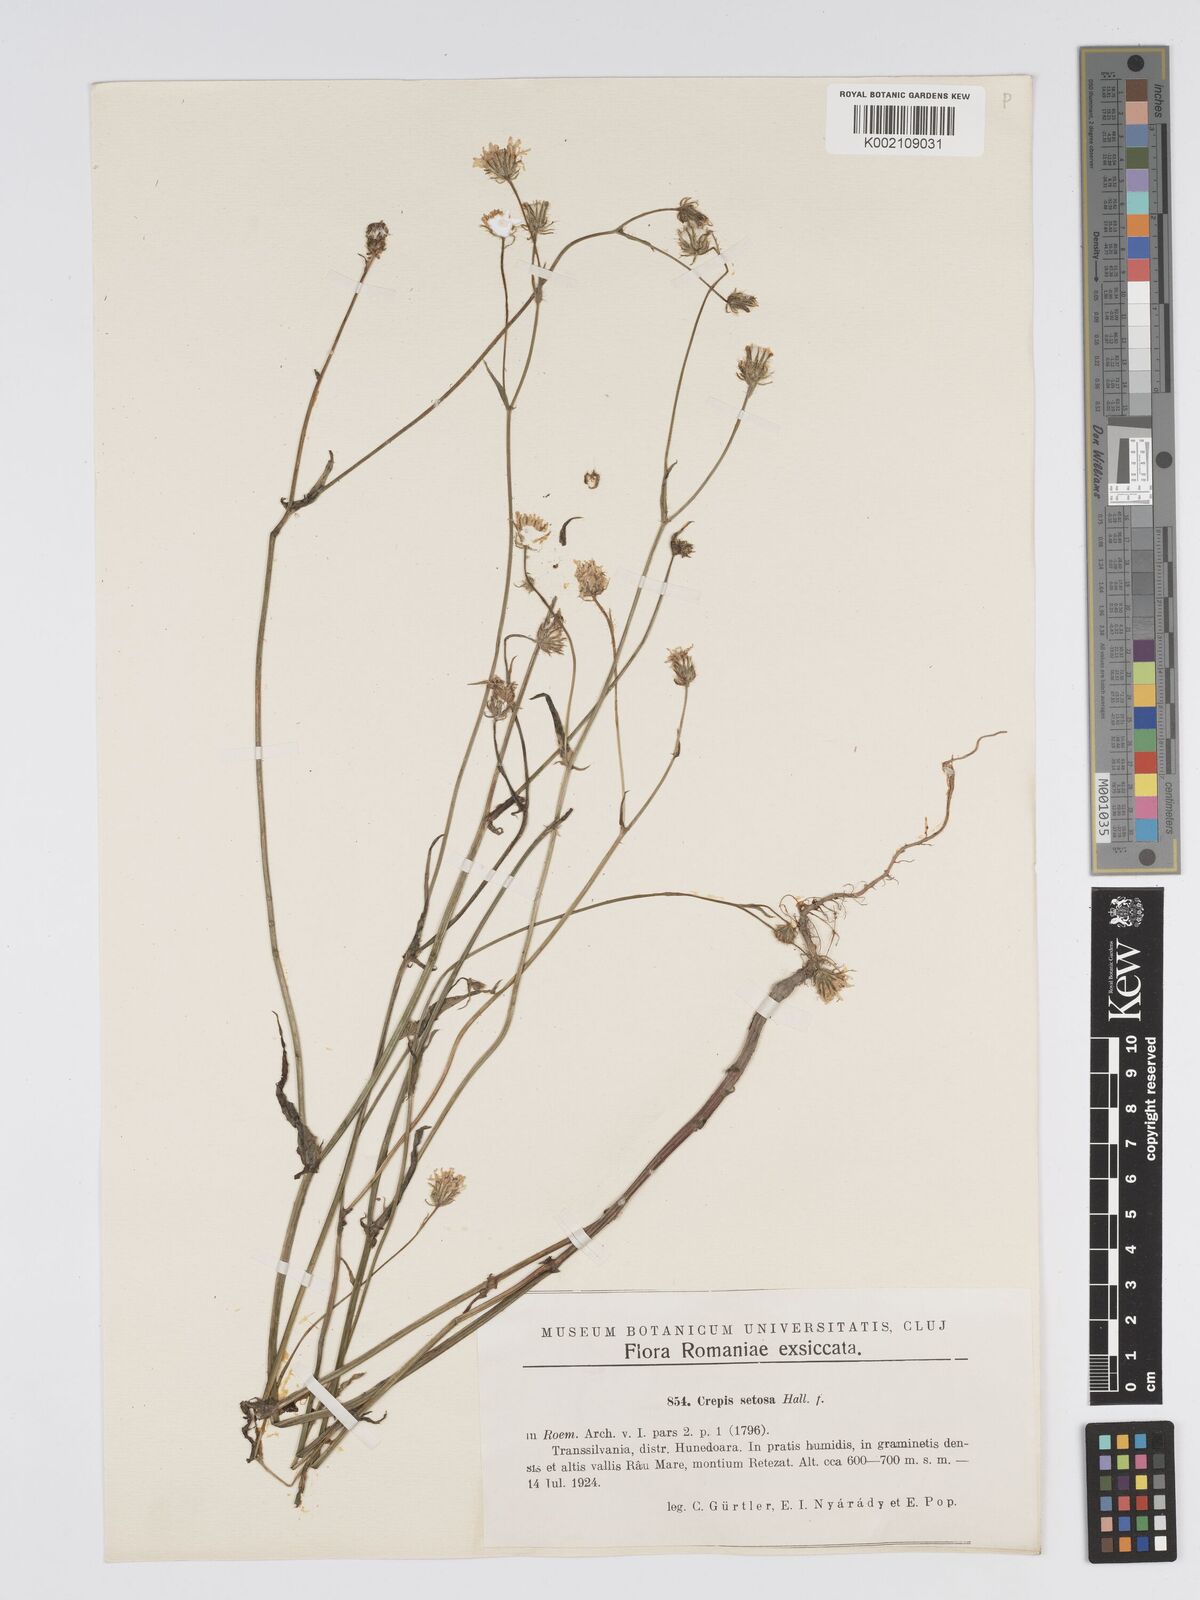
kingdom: Plantae
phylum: Tracheophyta
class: Magnoliopsida
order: Asterales
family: Asteraceae
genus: Crepis
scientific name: Crepis setosa
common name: Bristly hawk's-beard
